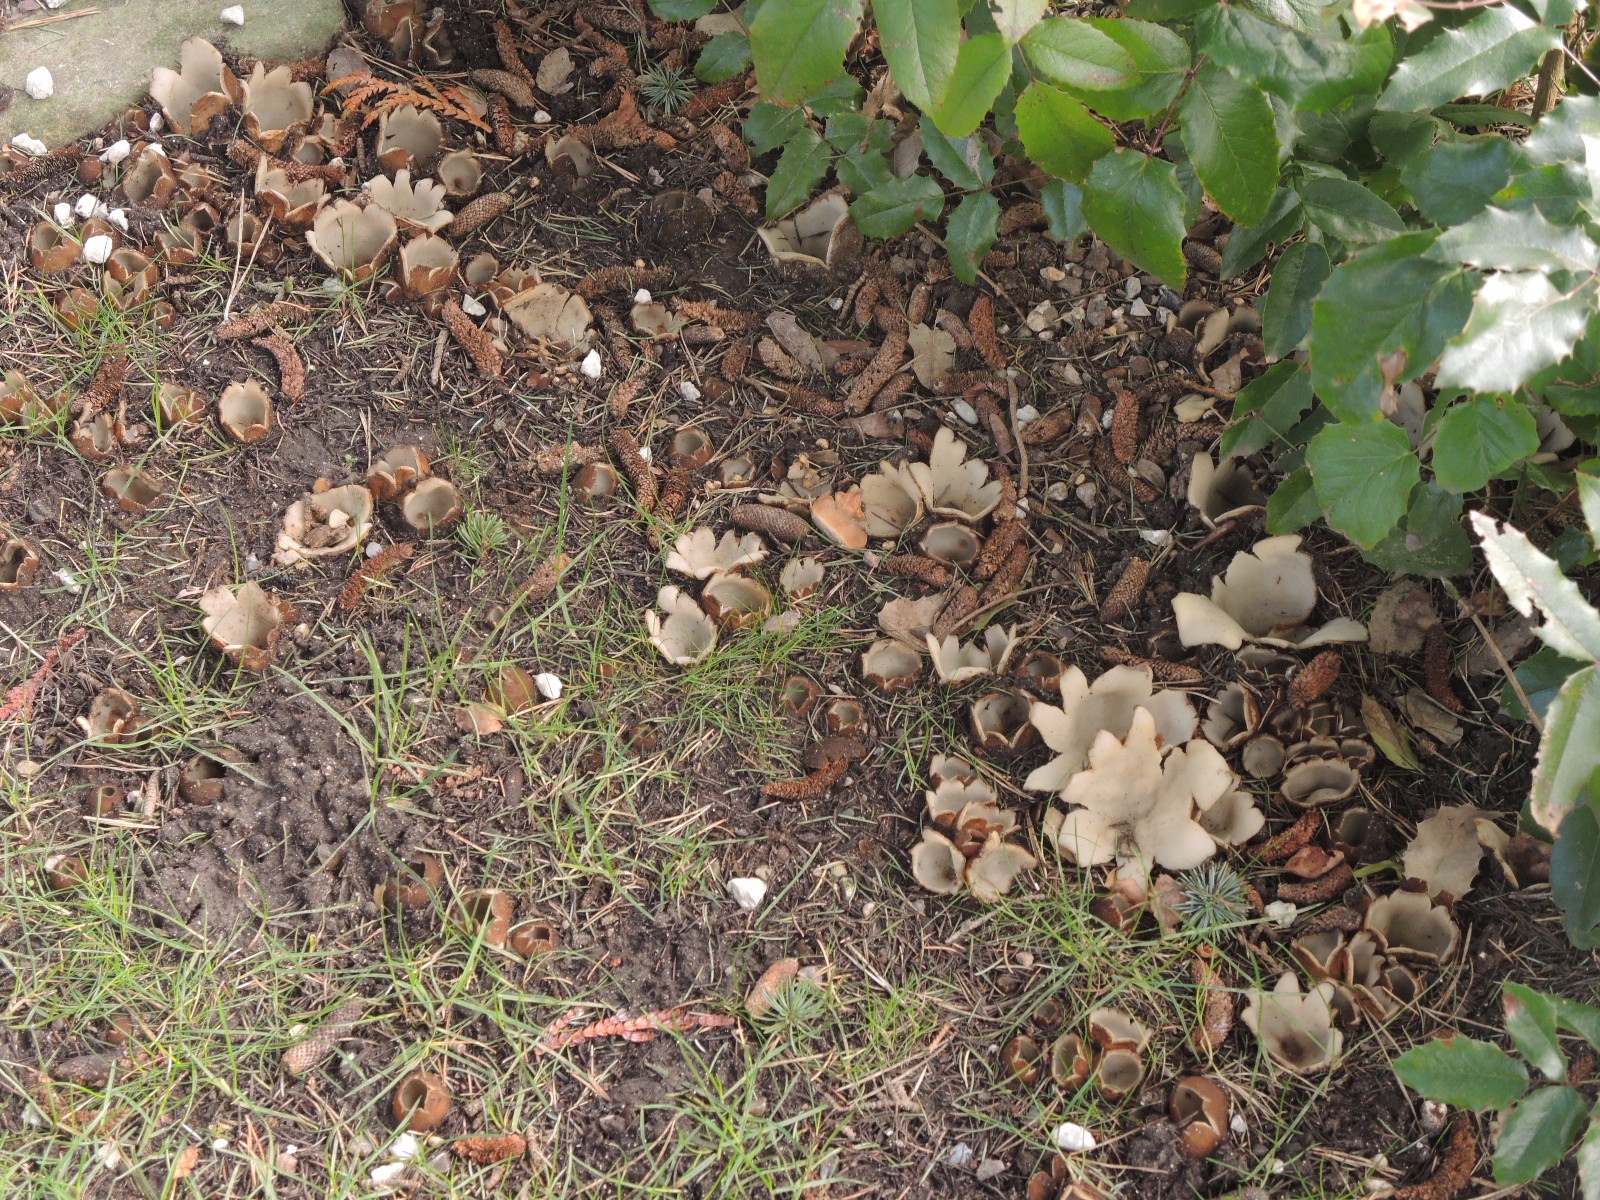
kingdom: Fungi
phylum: Ascomycota
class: Pezizomycetes
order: Pezizales
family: Pyronemataceae
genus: Geopora
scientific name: Geopora sumneriana
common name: vår-jordbæger
